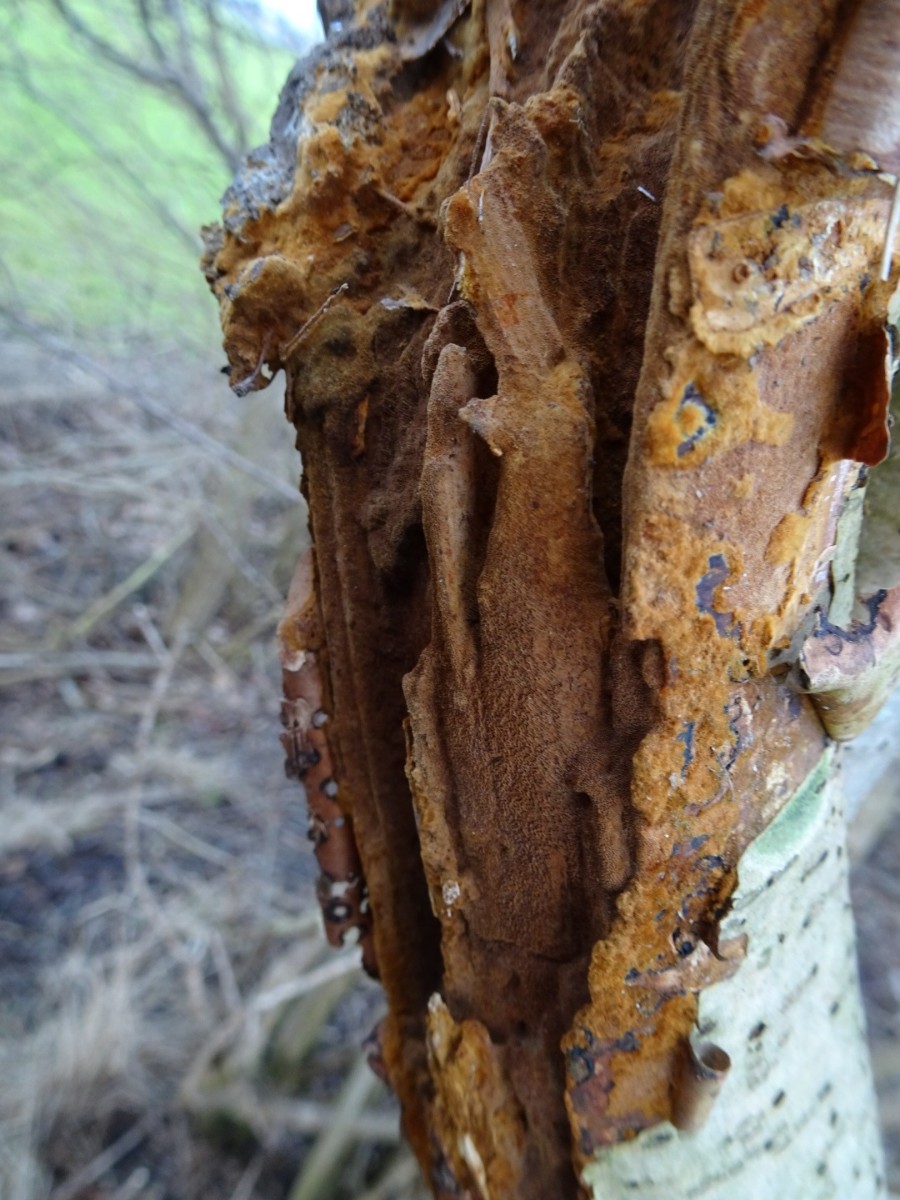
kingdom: Fungi
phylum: Basidiomycota
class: Agaricomycetes
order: Hymenochaetales
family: Hymenochaetaceae
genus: Fuscoporia
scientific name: Fuscoporia ferrea
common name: skorpe-ildporesvamp
